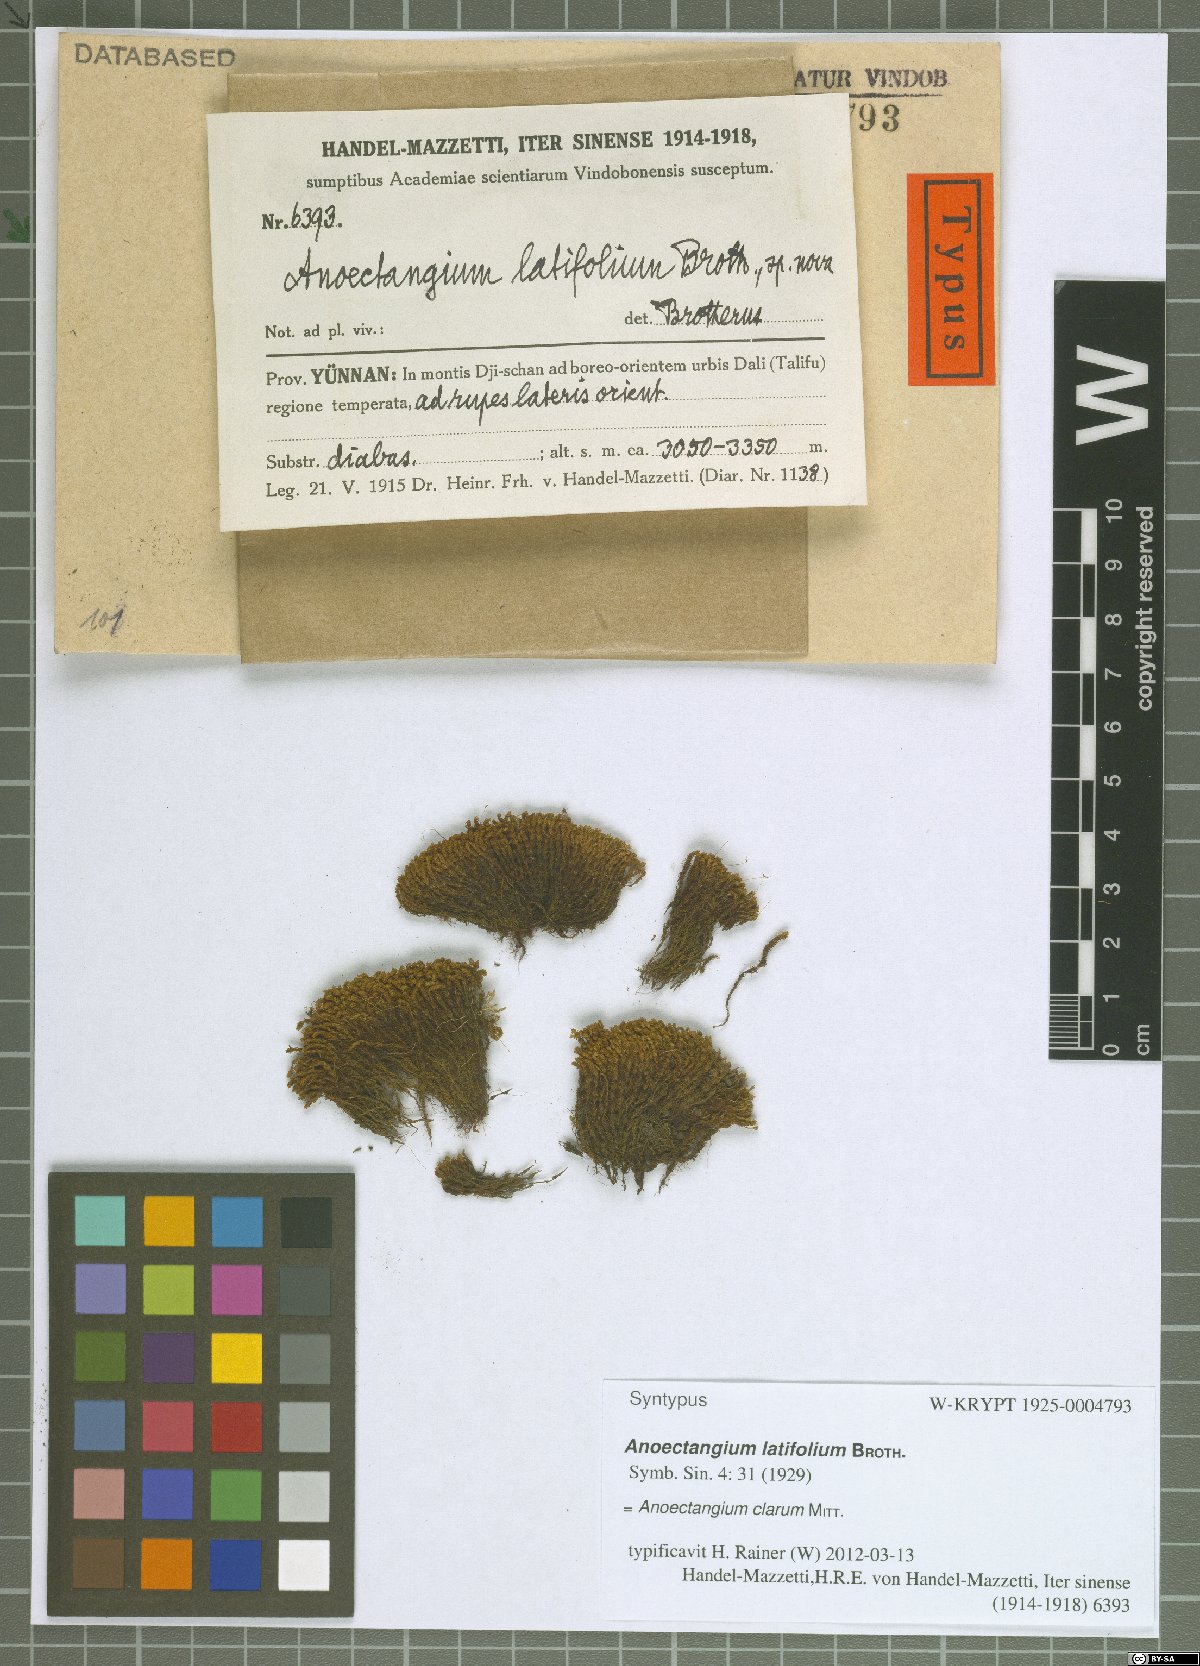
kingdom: Plantae
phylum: Bryophyta
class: Bryopsida
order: Pottiales
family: Pottiaceae
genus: Anoectangium
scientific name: Anoectangium clarum
